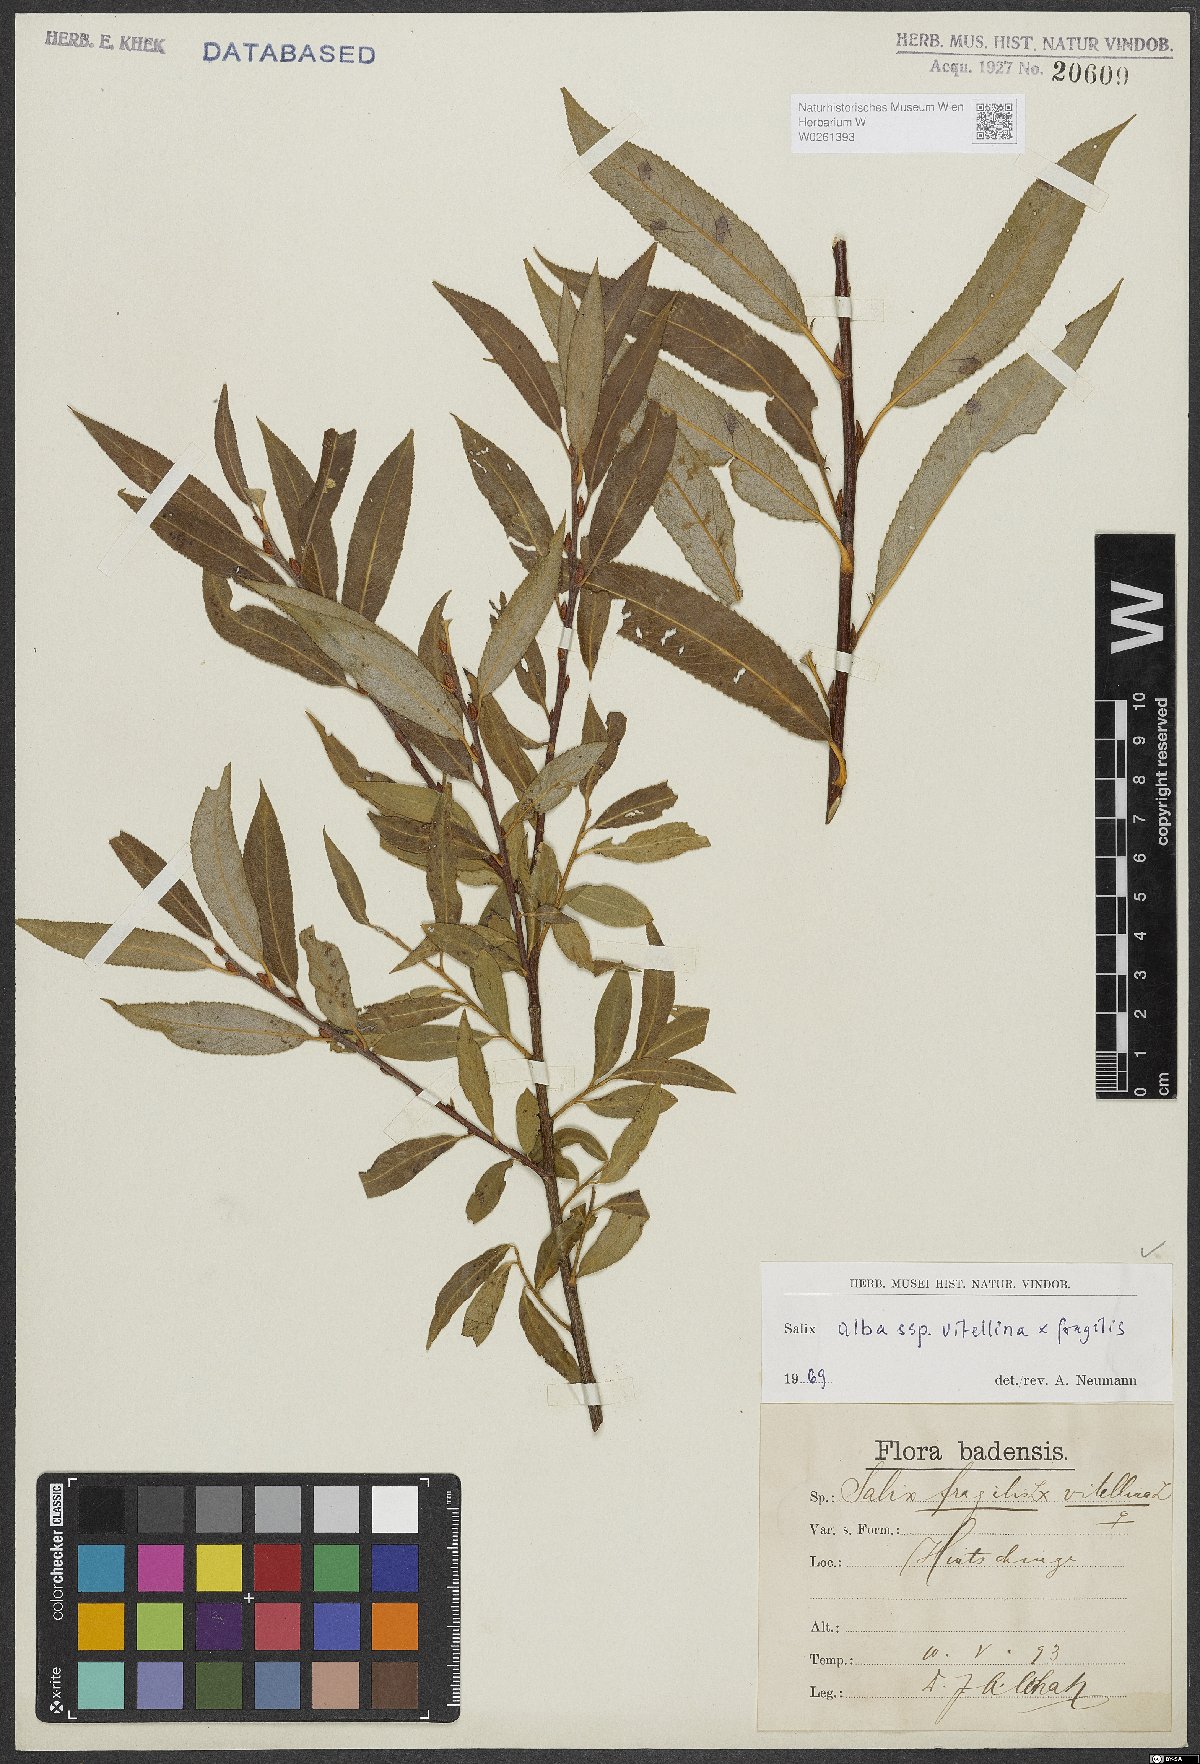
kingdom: Plantae
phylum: Tracheophyta
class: Magnoliopsida
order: Malpighiales
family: Salicaceae
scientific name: Salicaceae
